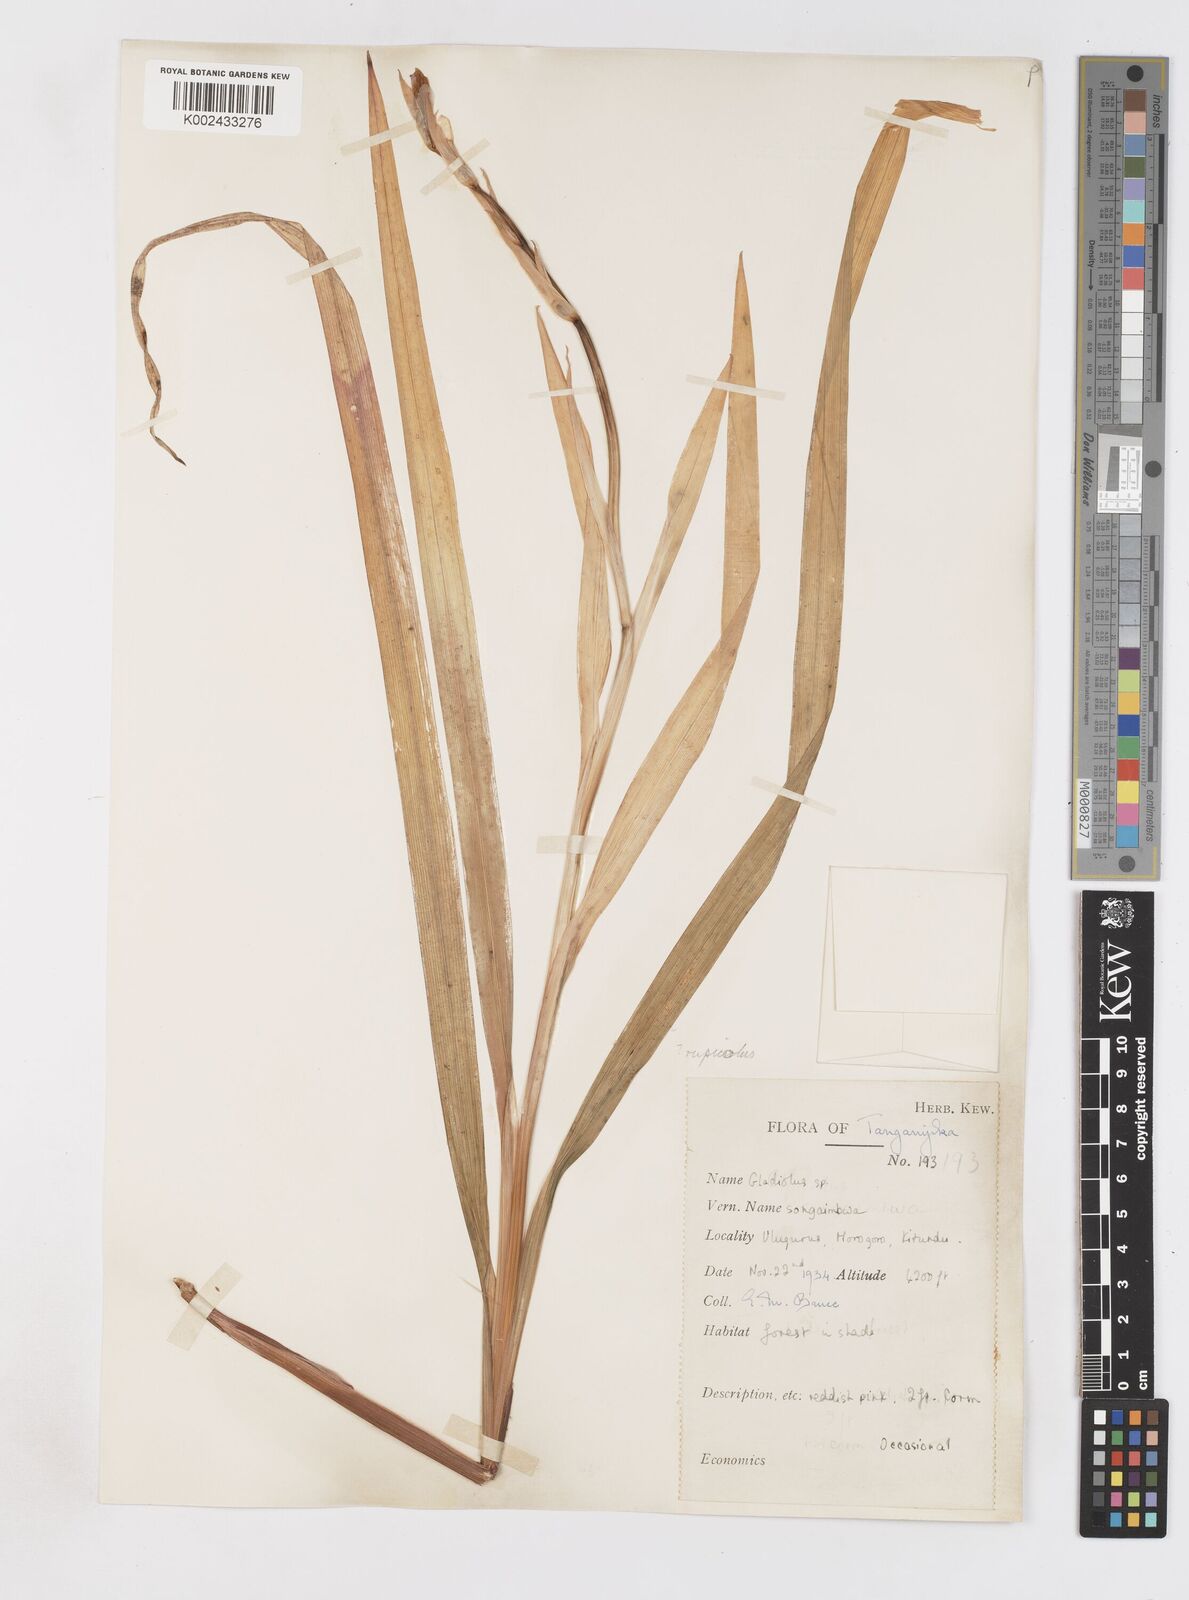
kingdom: Plantae
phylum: Tracheophyta
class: Liliopsida
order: Asparagales
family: Iridaceae
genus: Gladiolus
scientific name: Gladiolus rupicola
